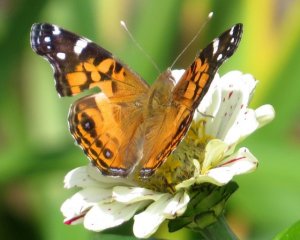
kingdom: Animalia
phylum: Arthropoda
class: Insecta
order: Lepidoptera
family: Nymphalidae
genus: Vanessa
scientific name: Vanessa virginiensis
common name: American Lady
